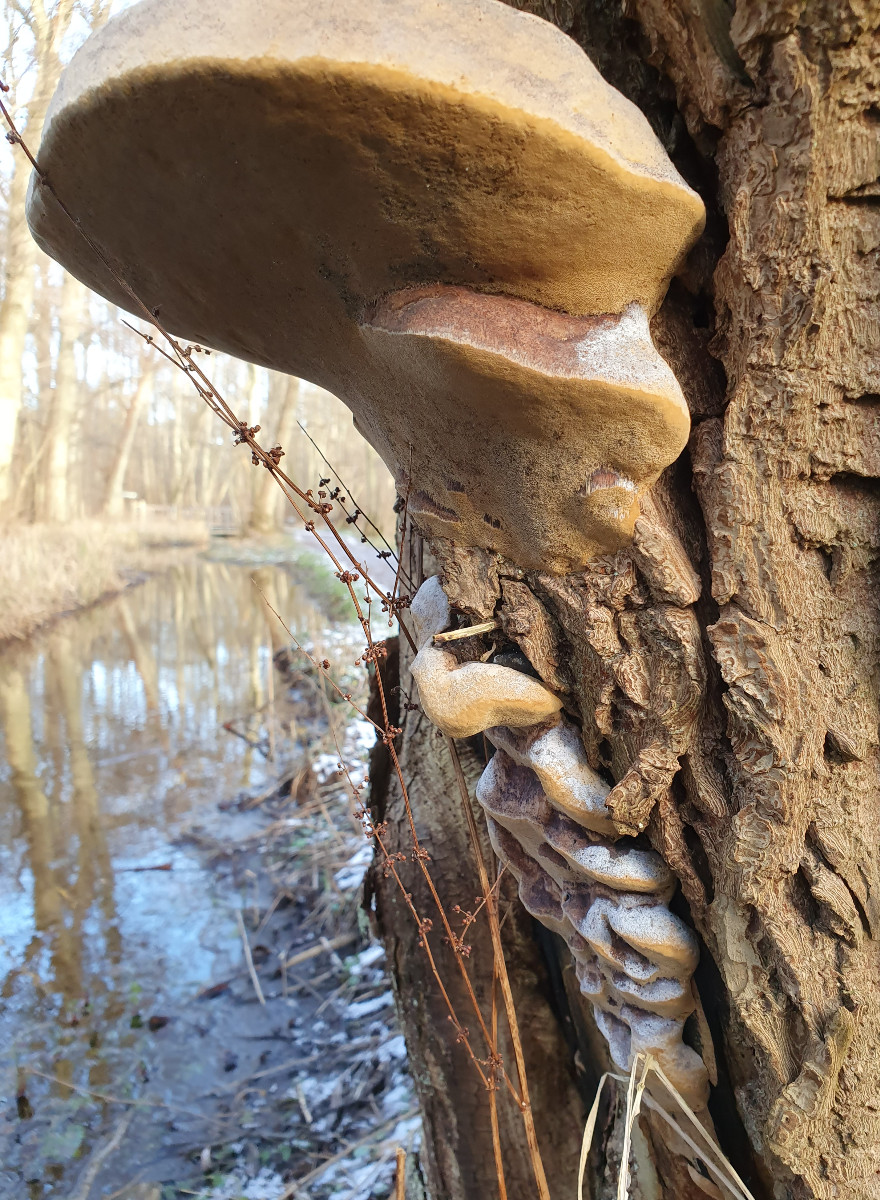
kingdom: Fungi
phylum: Basidiomycota
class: Agaricomycetes
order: Hymenochaetales
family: Hymenochaetaceae
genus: Phellinus
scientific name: Phellinus igniarius
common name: almindelig ildporesvamp
